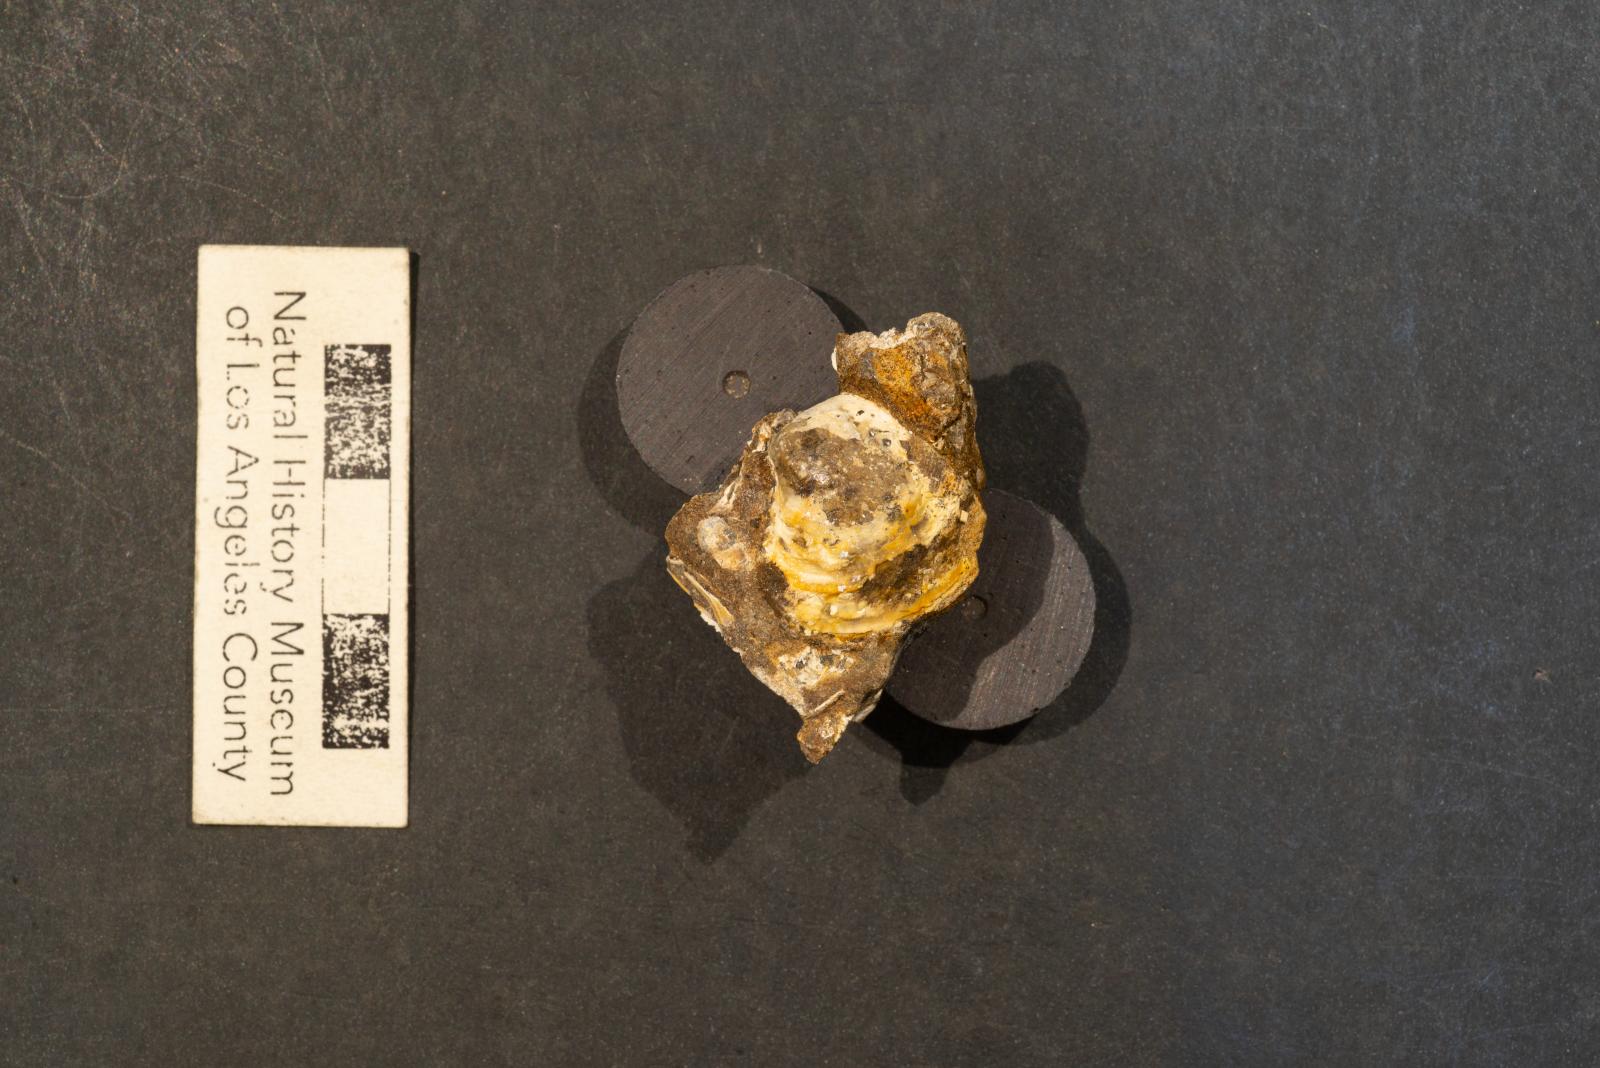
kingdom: Animalia
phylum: Mollusca
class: Bivalvia
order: Venerida
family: Veneridae
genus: Rhaiphiale
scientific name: Rhaiphiale pharota
